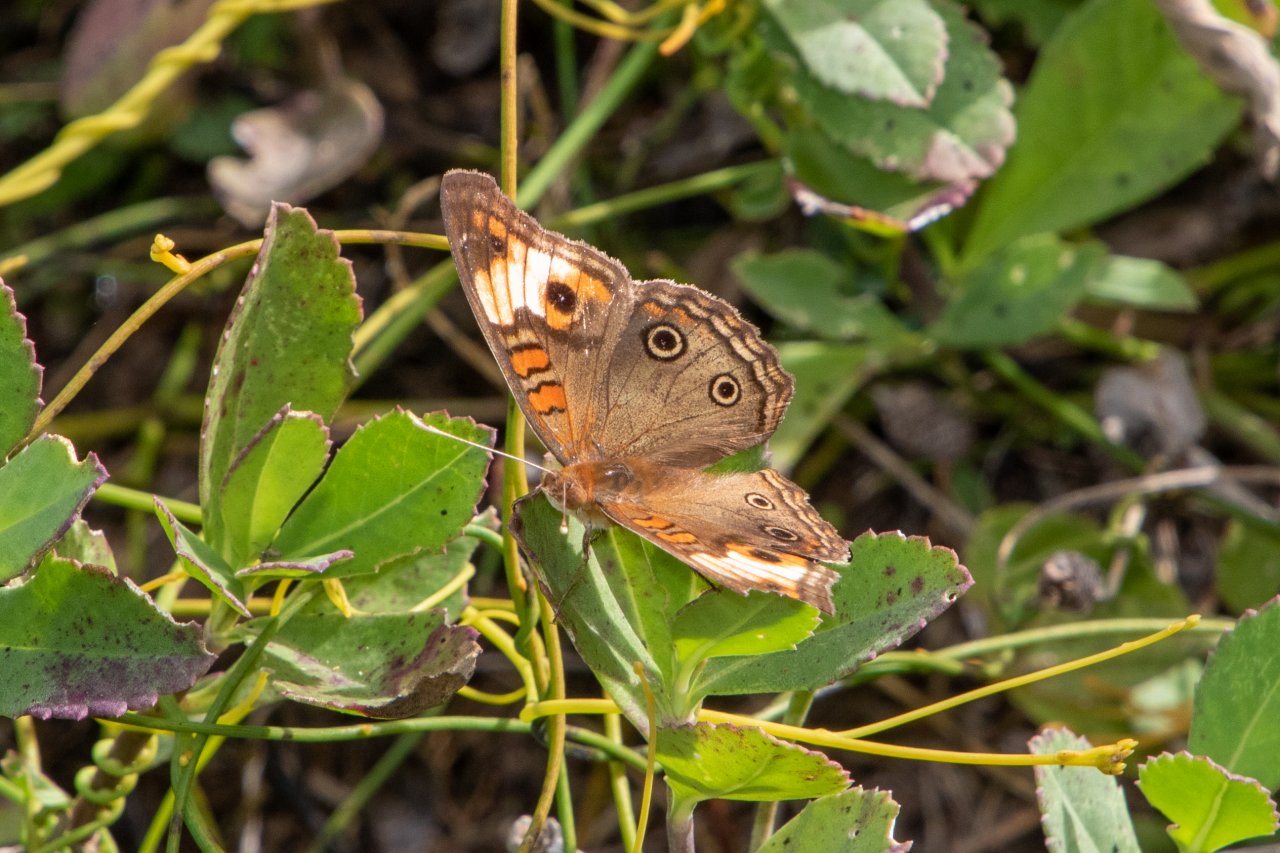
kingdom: Animalia
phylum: Arthropoda
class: Insecta
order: Lepidoptera
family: Nymphalidae
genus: Junonia
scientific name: Junonia lavinia
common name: Tropical Buckeye
